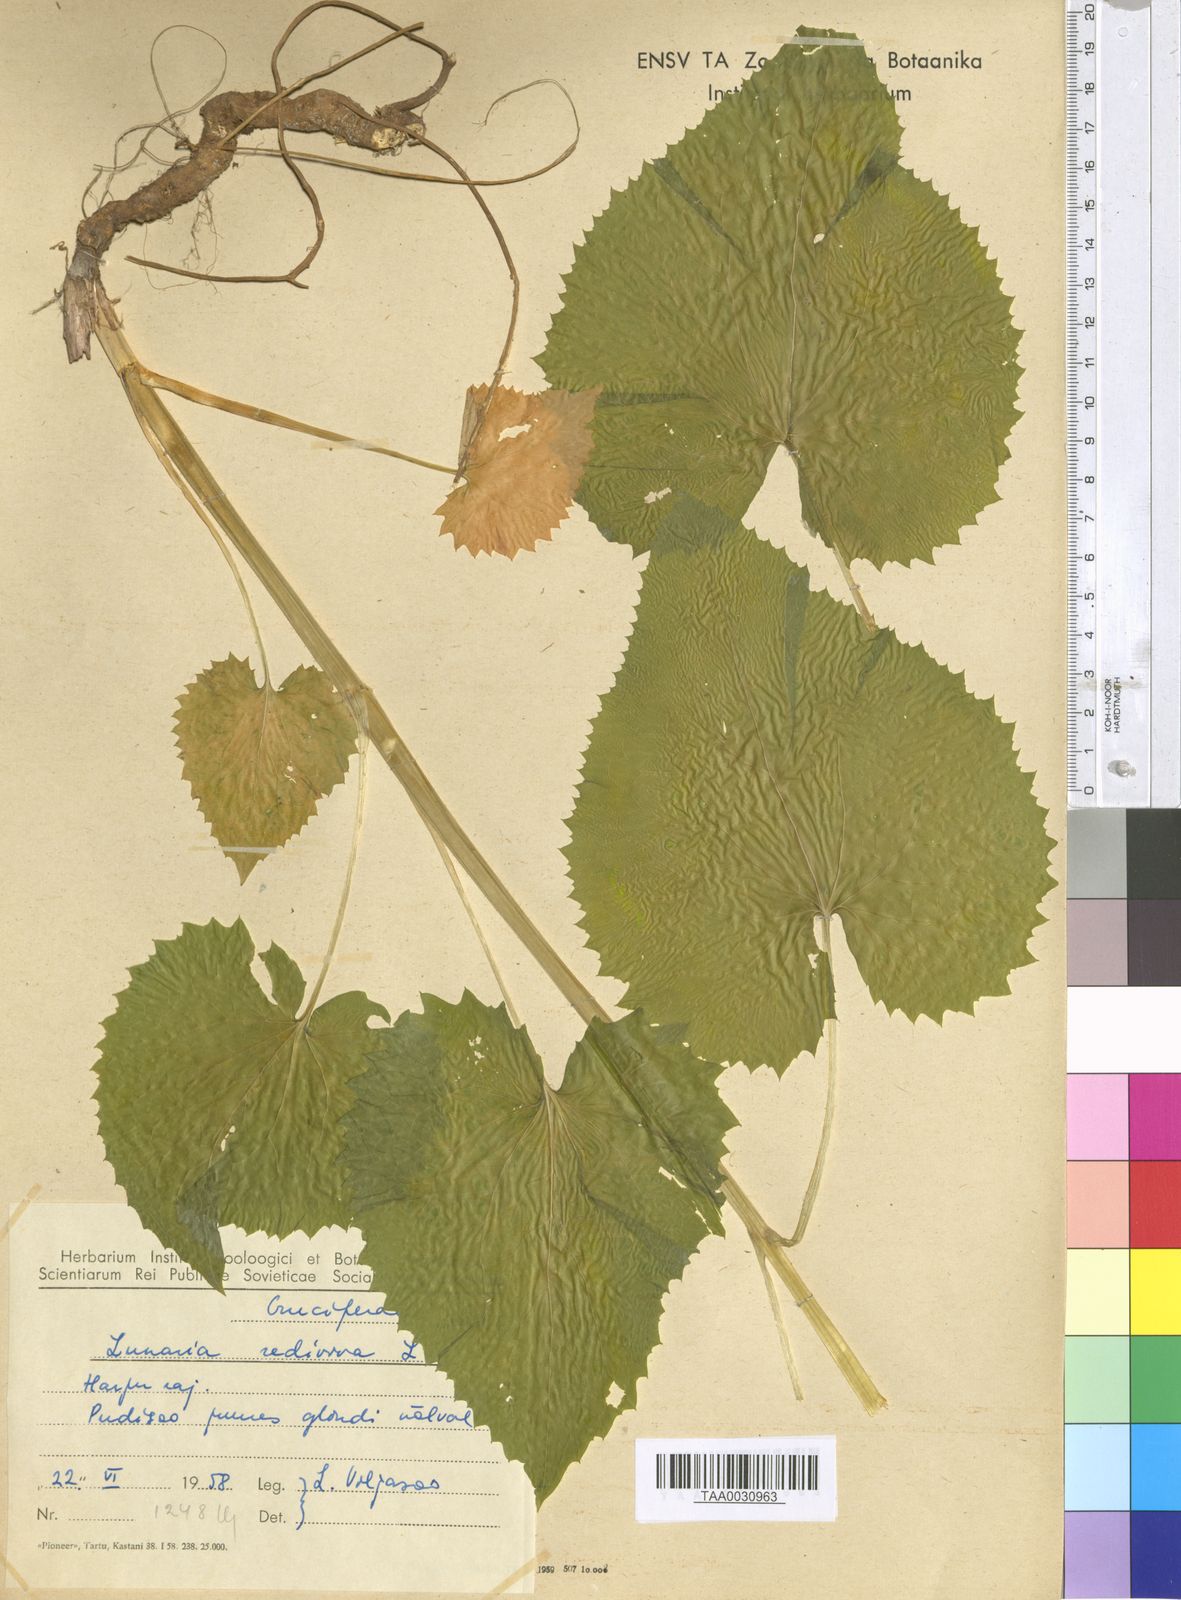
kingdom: Plantae
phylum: Tracheophyta
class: Magnoliopsida
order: Brassicales
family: Brassicaceae
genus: Lunaria
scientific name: Lunaria rediviva
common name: Perennial honesty
